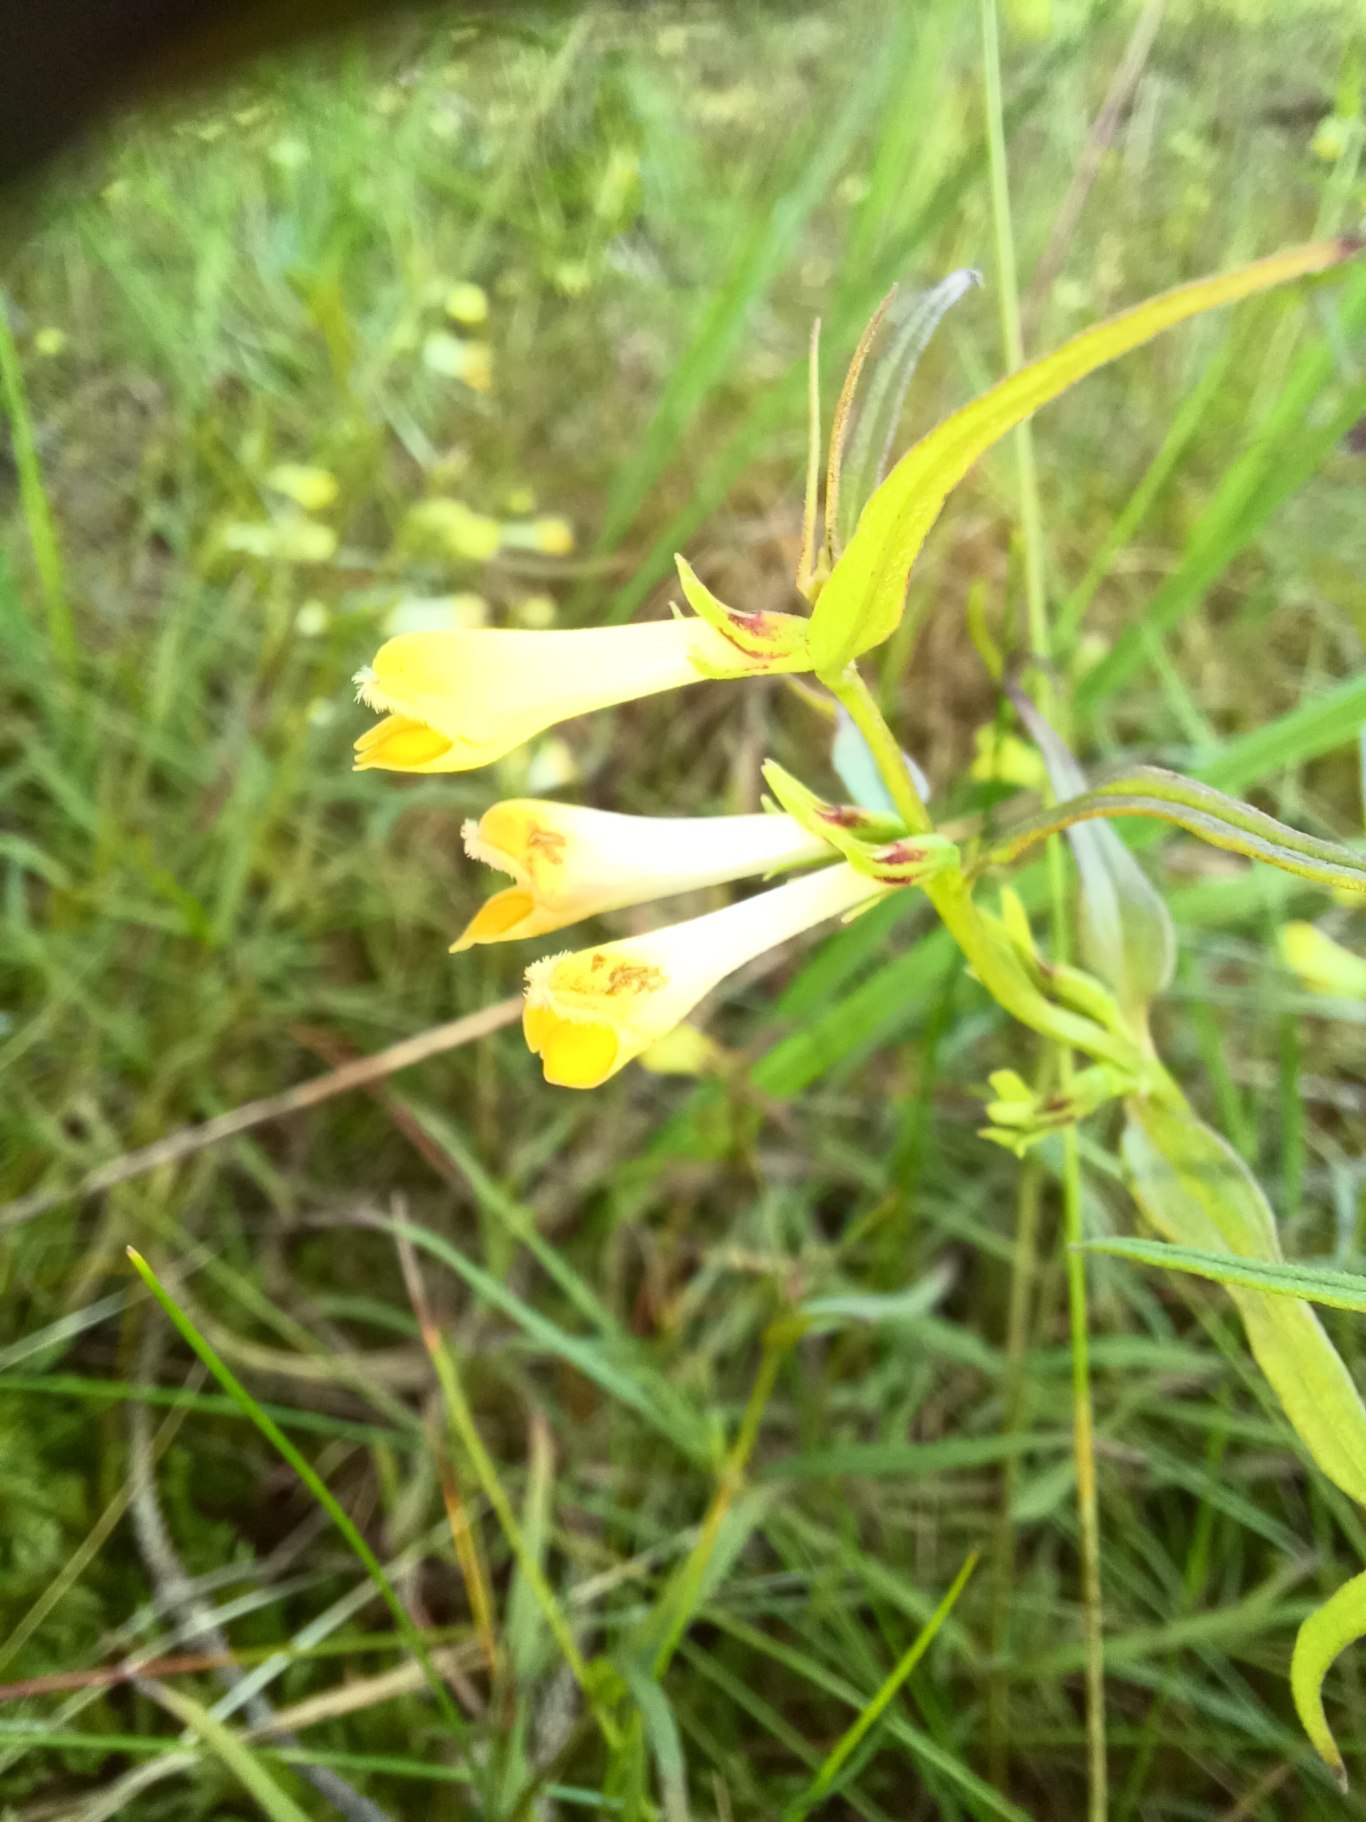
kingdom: Plantae
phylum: Tracheophyta
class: Magnoliopsida
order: Lamiales
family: Orobanchaceae
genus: Melampyrum
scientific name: Melampyrum pratense
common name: Almindelig kohvede
